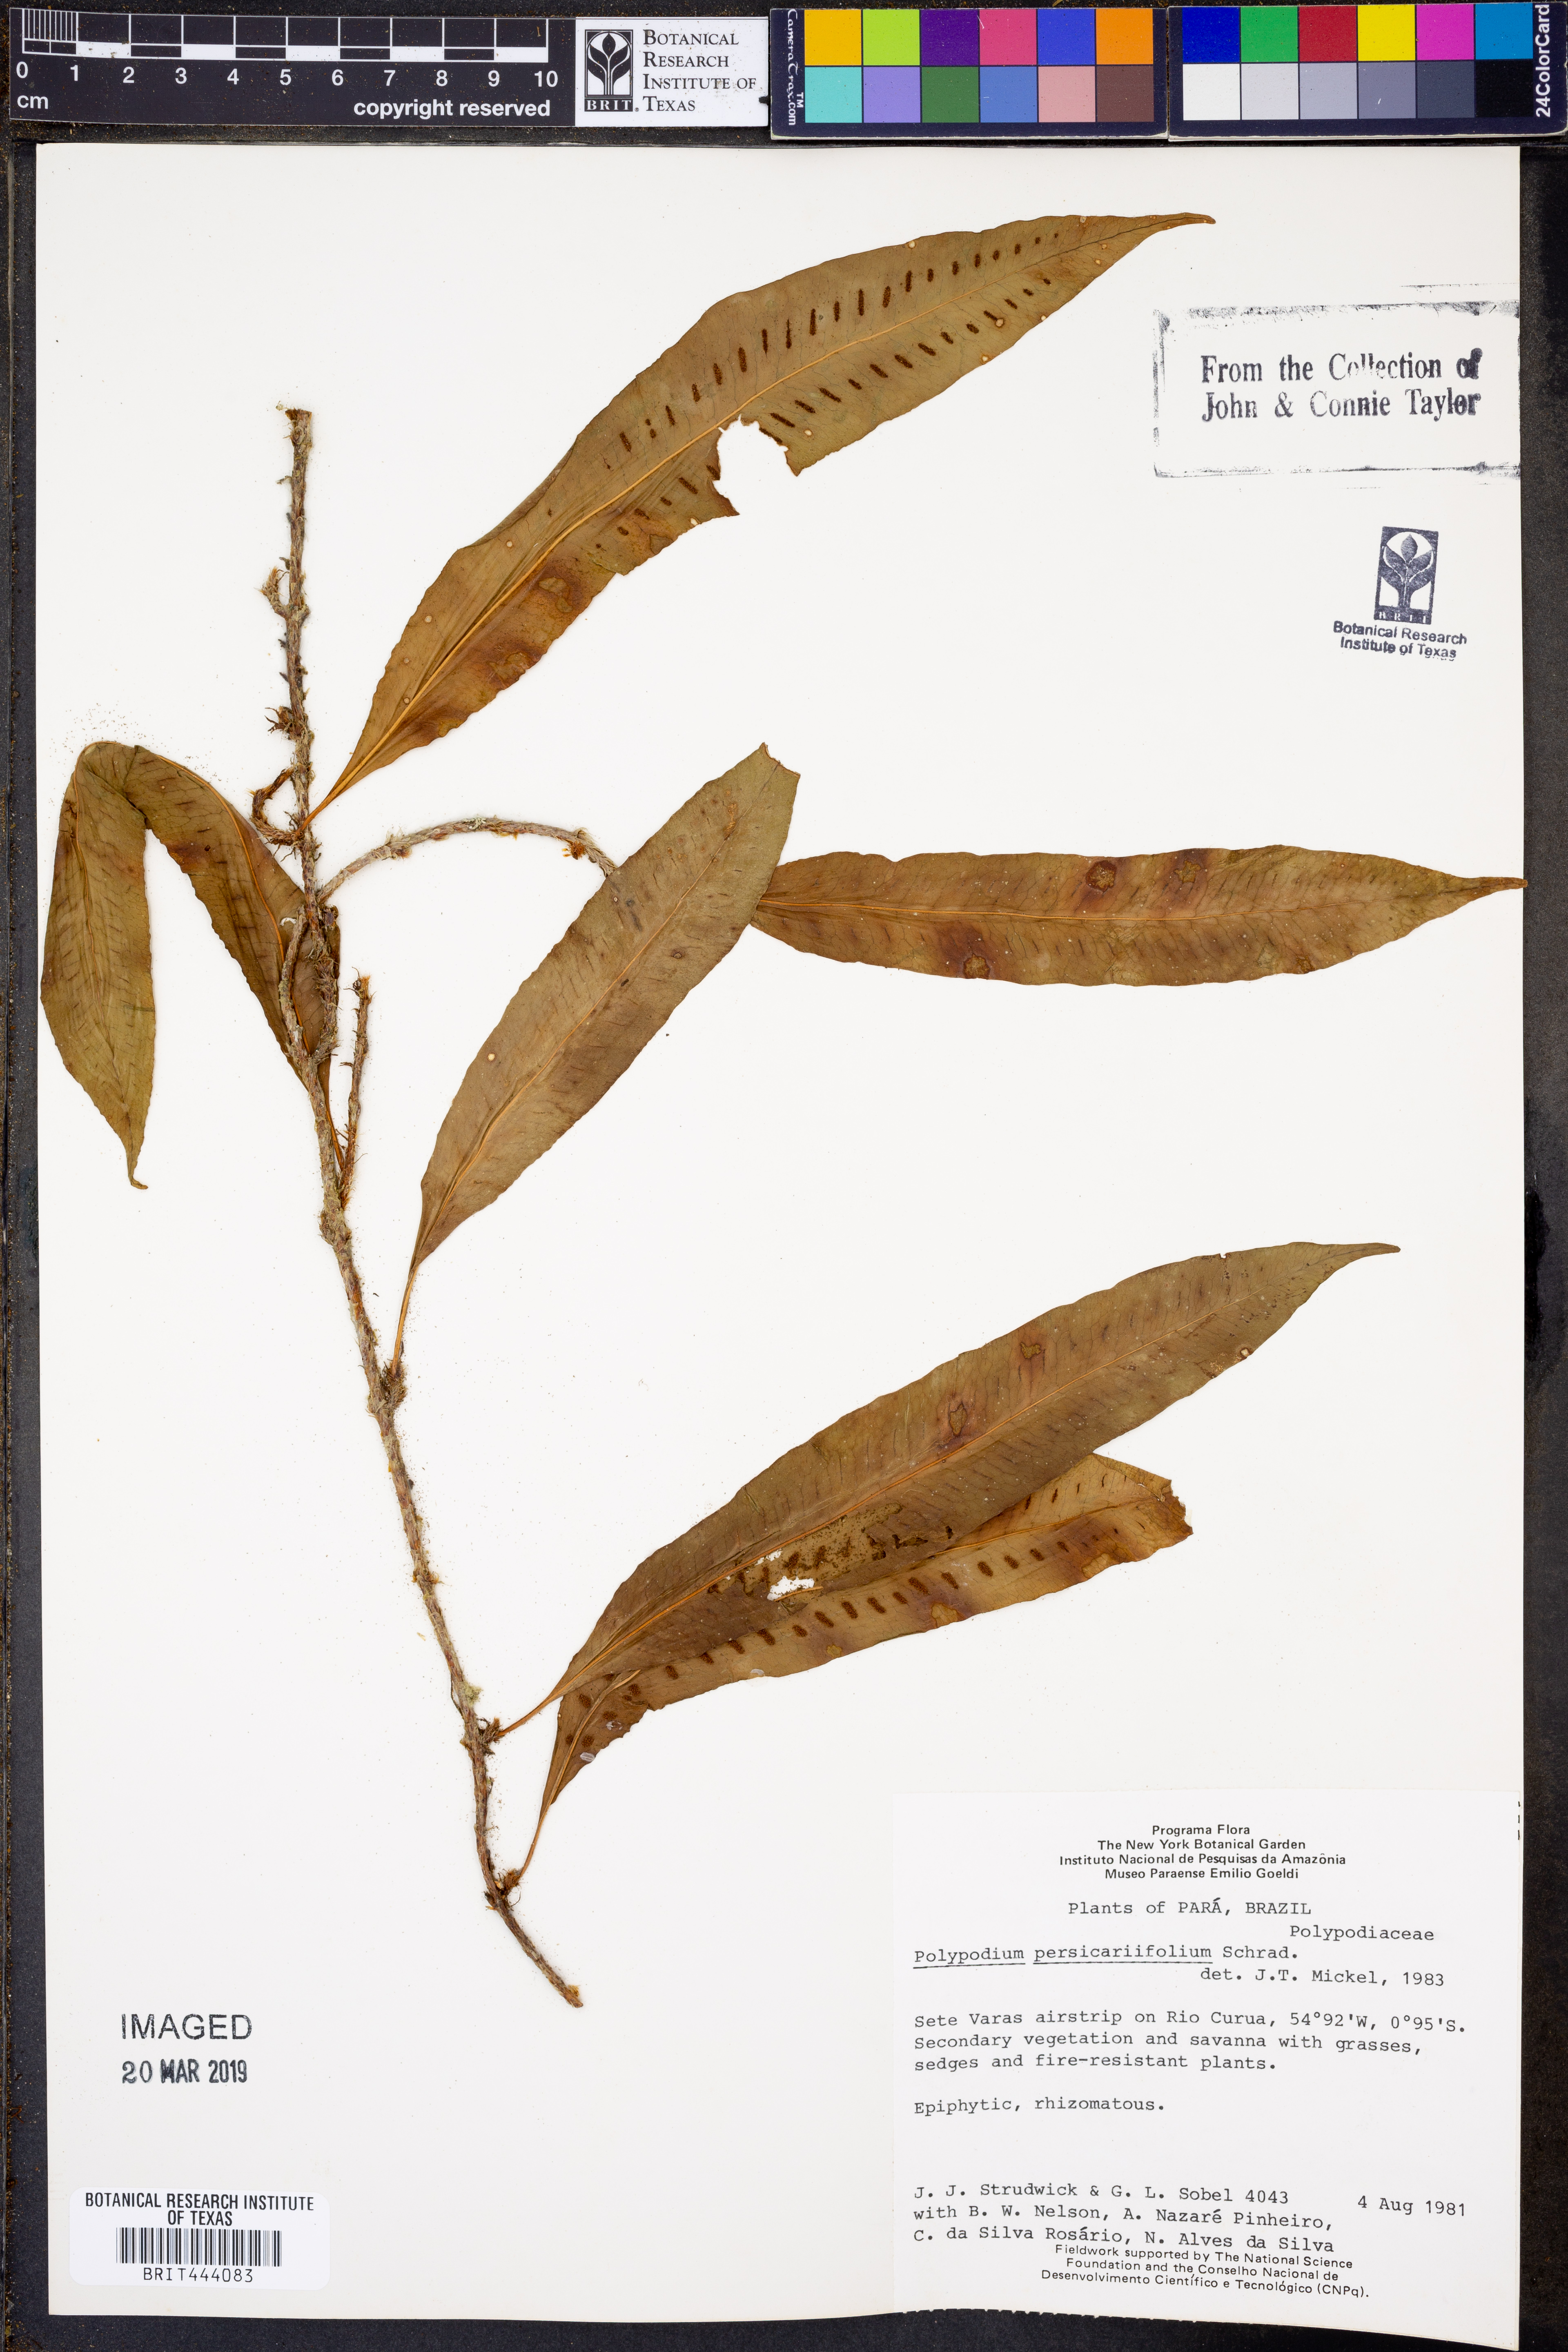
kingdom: Plantae
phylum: Tracheophyta
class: Polypodiopsida
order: Polypodiales
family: Polypodiaceae
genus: Microgramma
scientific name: Microgramma persicariifolia
